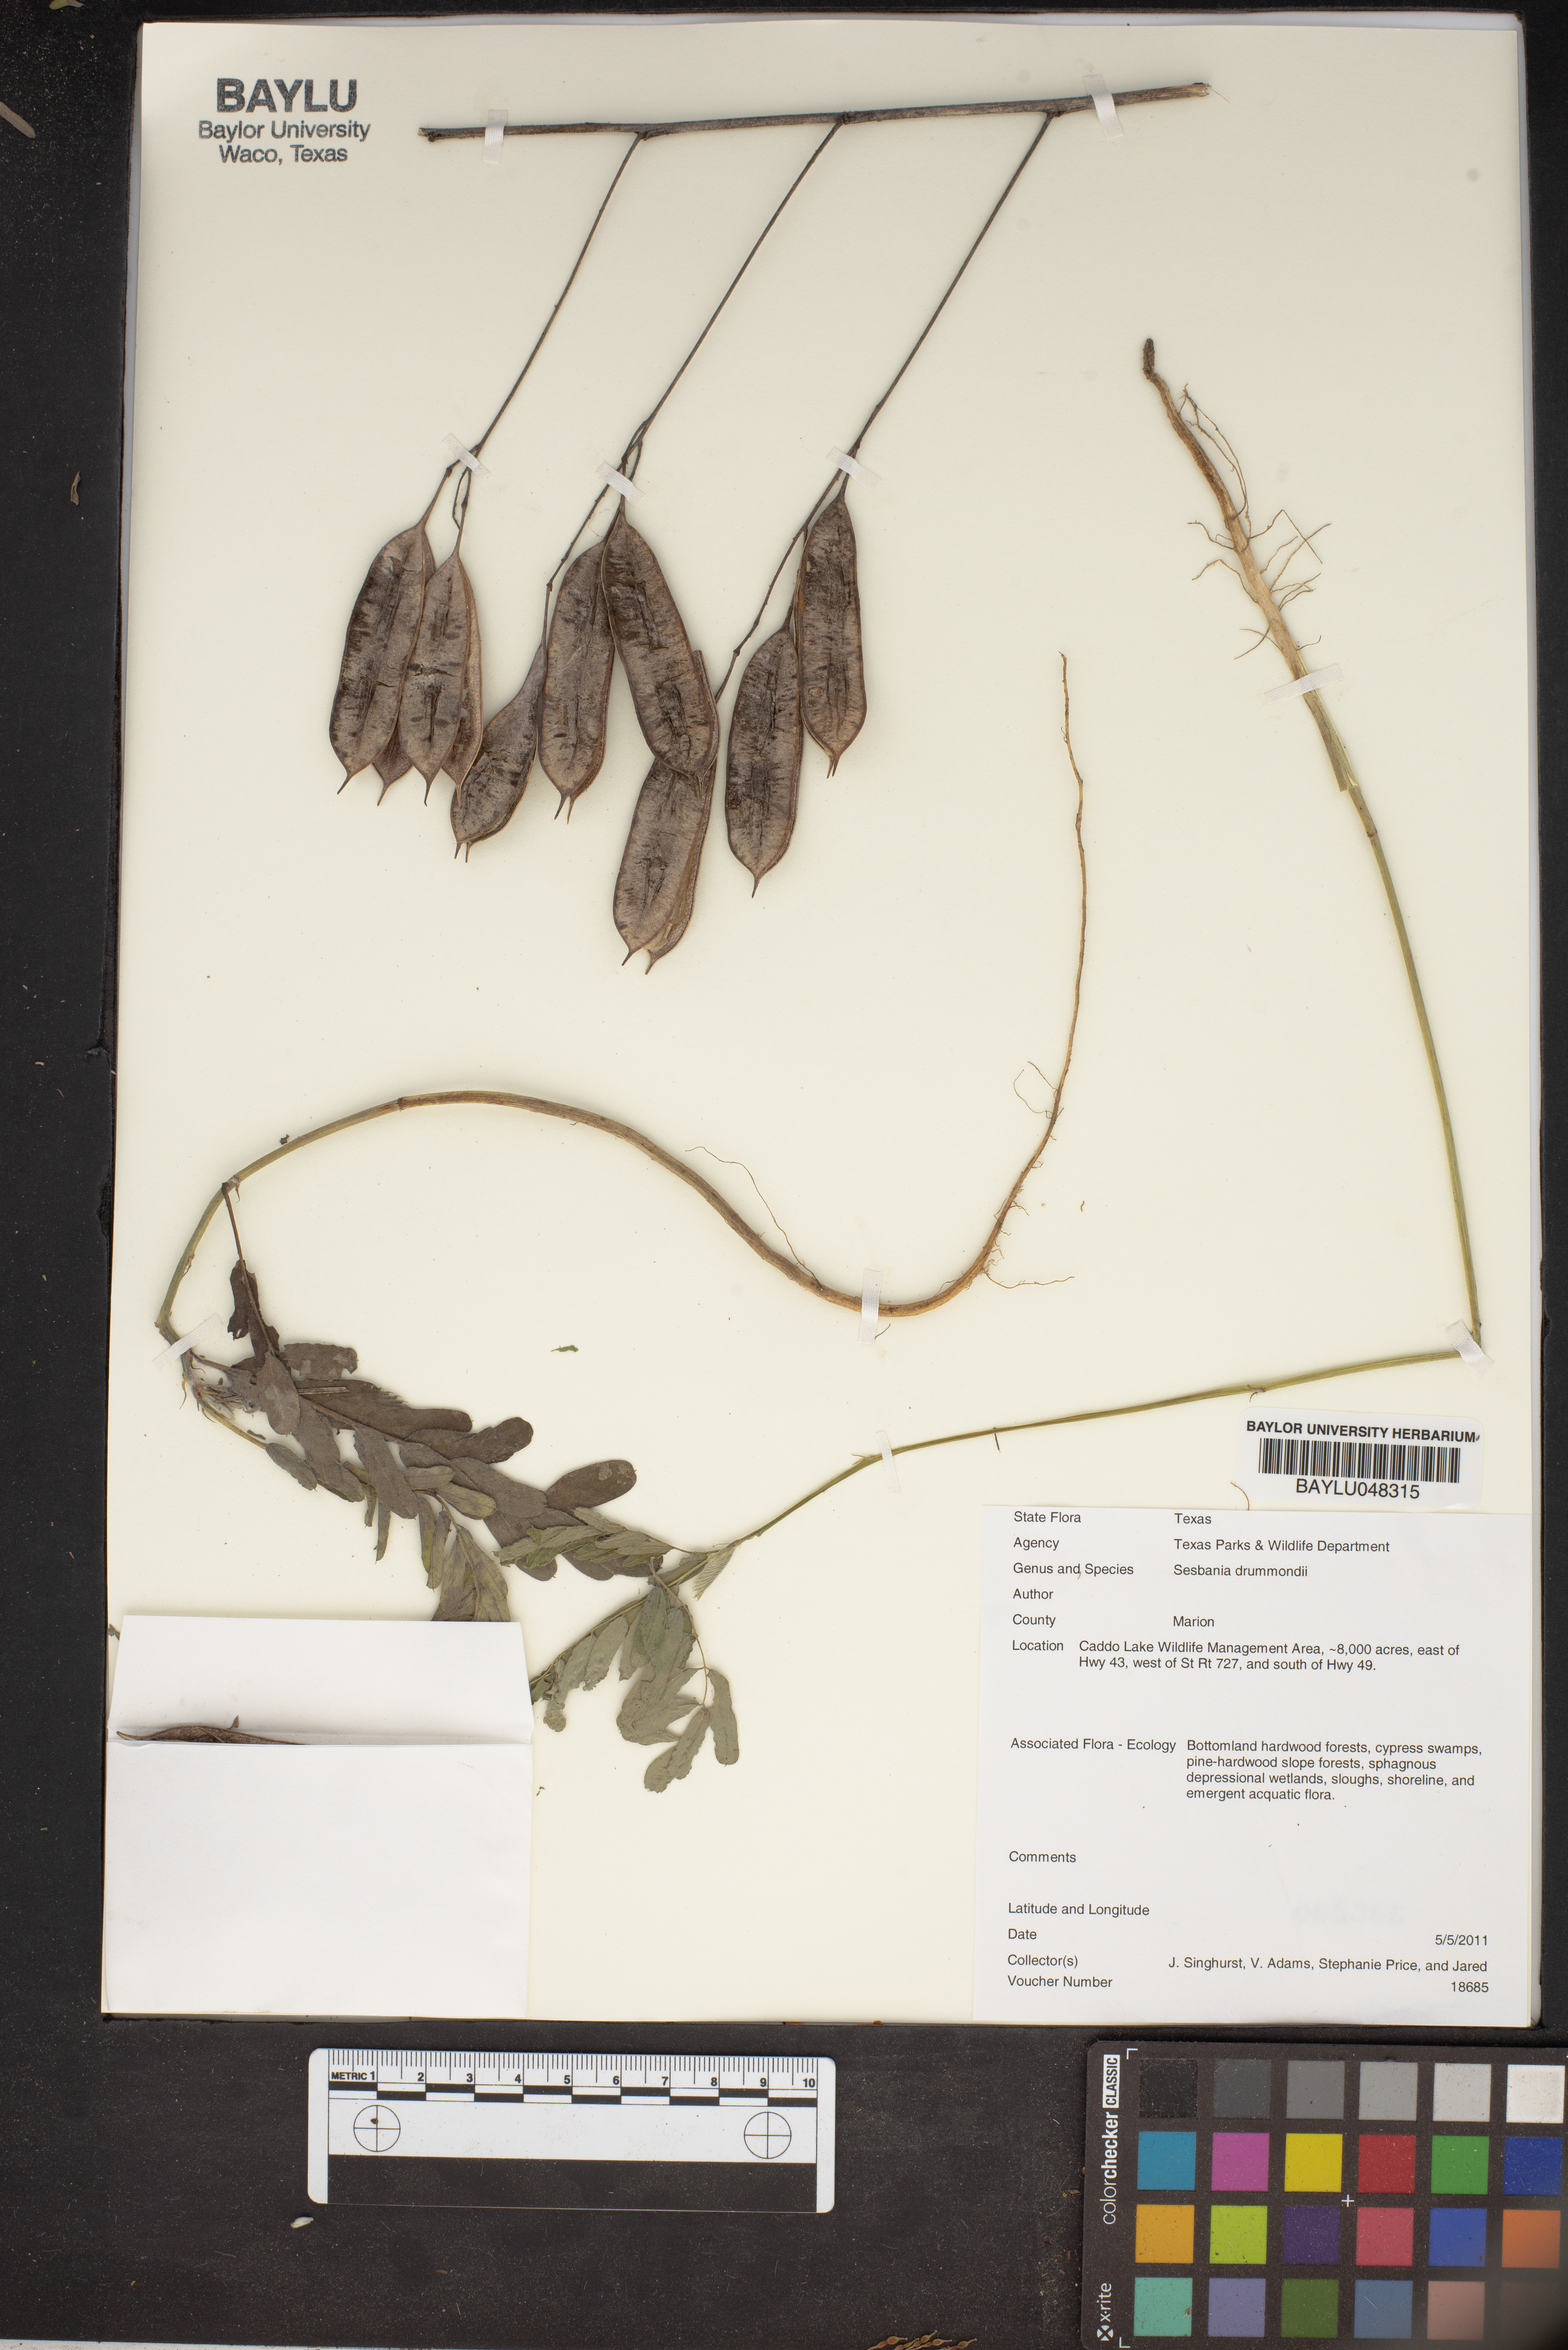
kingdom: Plantae
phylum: Tracheophyta
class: Magnoliopsida
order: Fabales
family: Fabaceae
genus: Sesbania
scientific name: Sesbania drummondii
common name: Poison-bean
